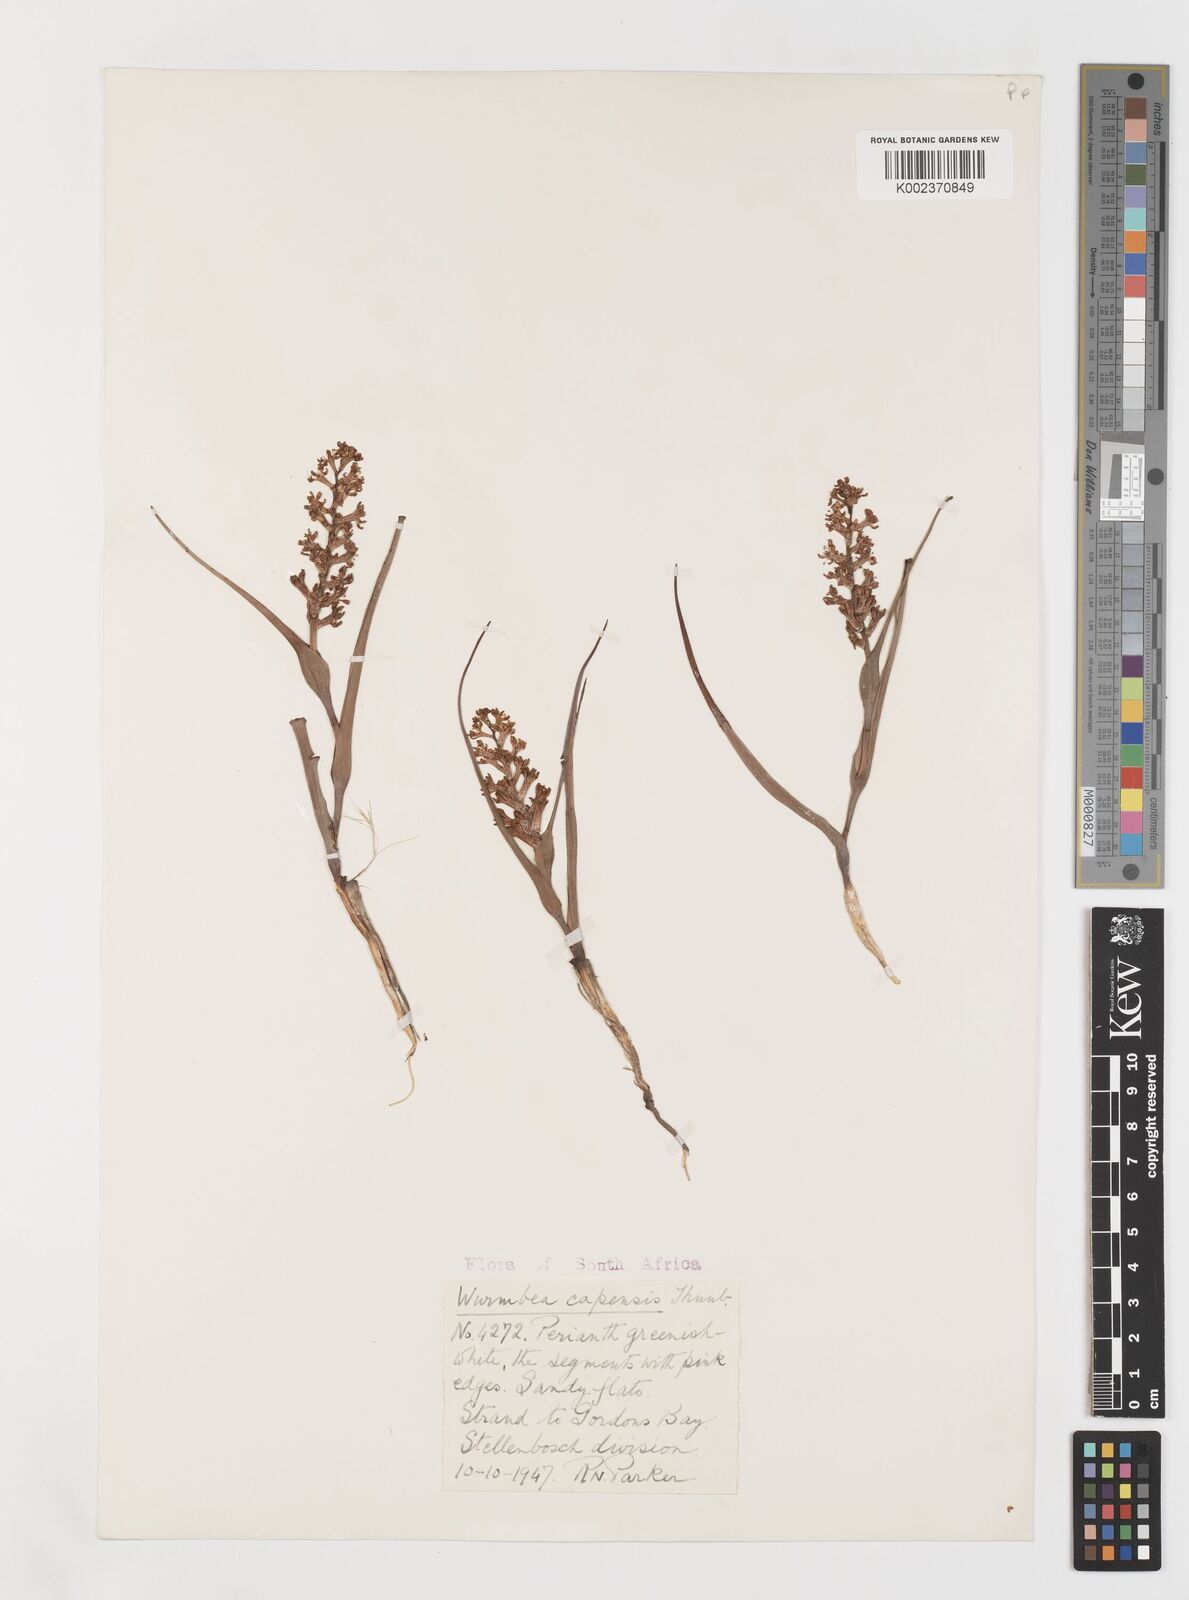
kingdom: Plantae
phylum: Tracheophyta
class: Liliopsida
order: Liliales
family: Colchicaceae
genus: Wurmbea
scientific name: Wurmbea capensis
